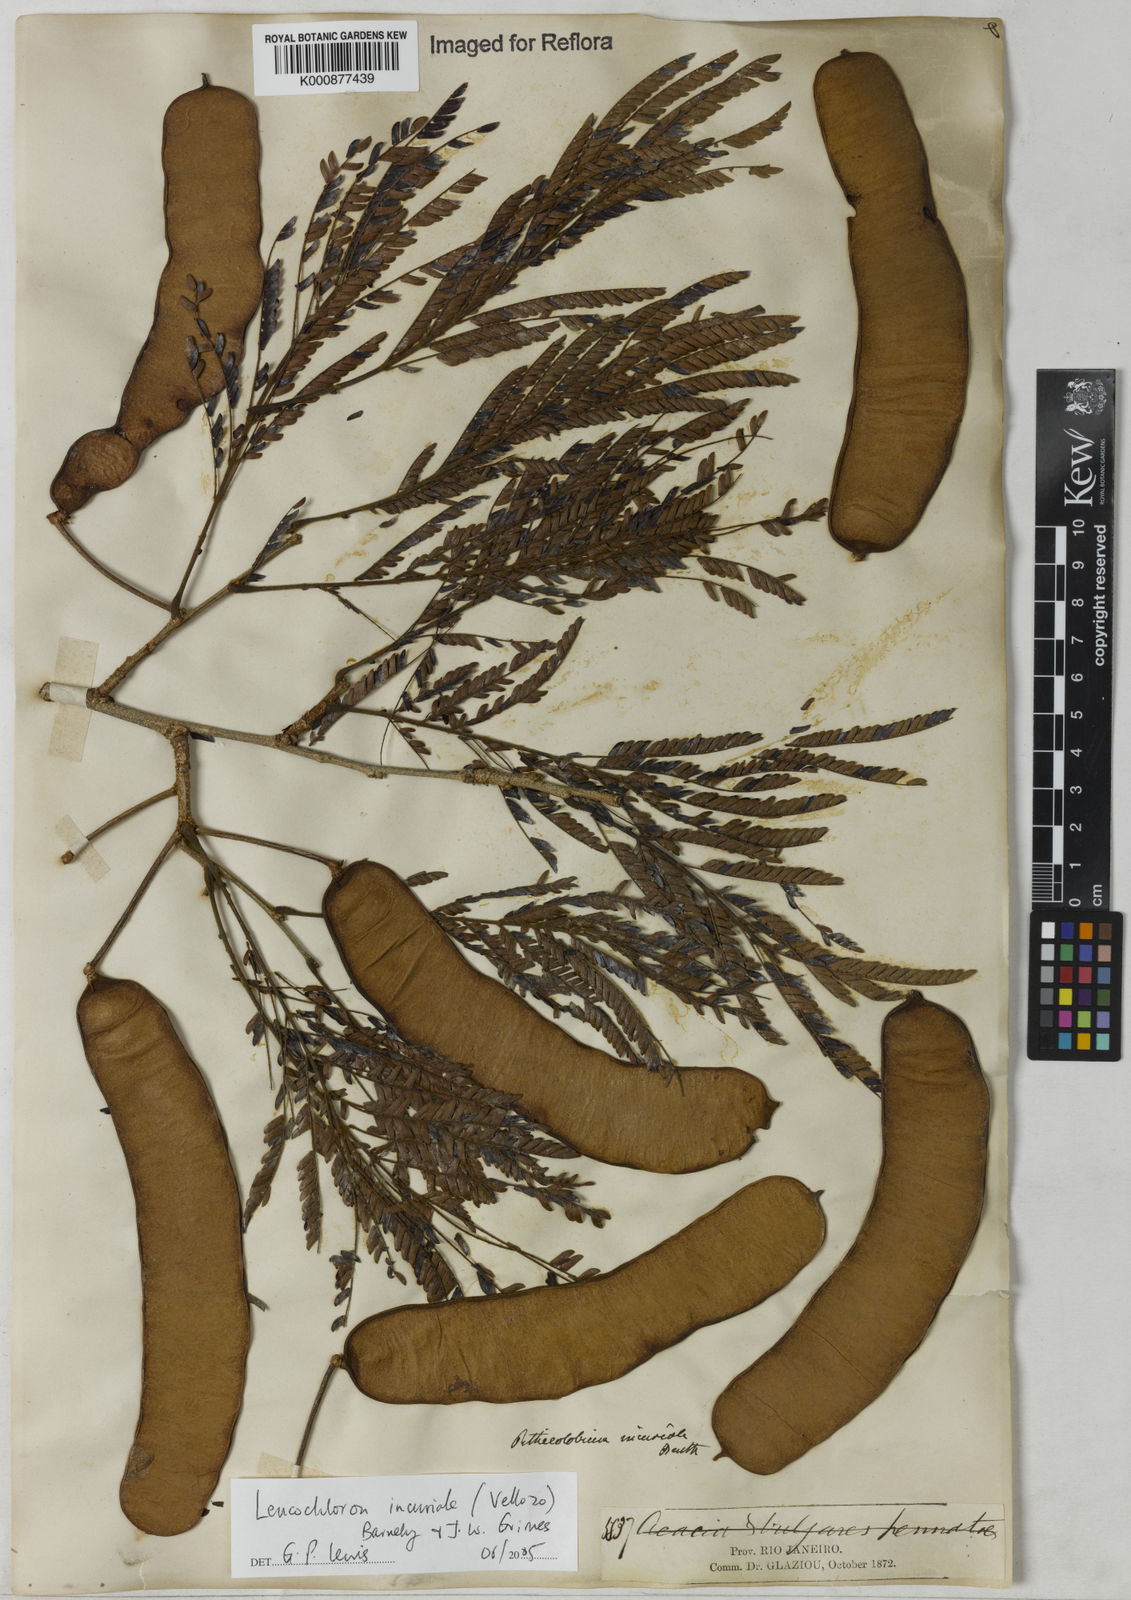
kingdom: Plantae
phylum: Tracheophyta
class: Magnoliopsida
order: Fabales
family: Fabaceae
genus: Leucochloron
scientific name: Leucochloron incuriale
